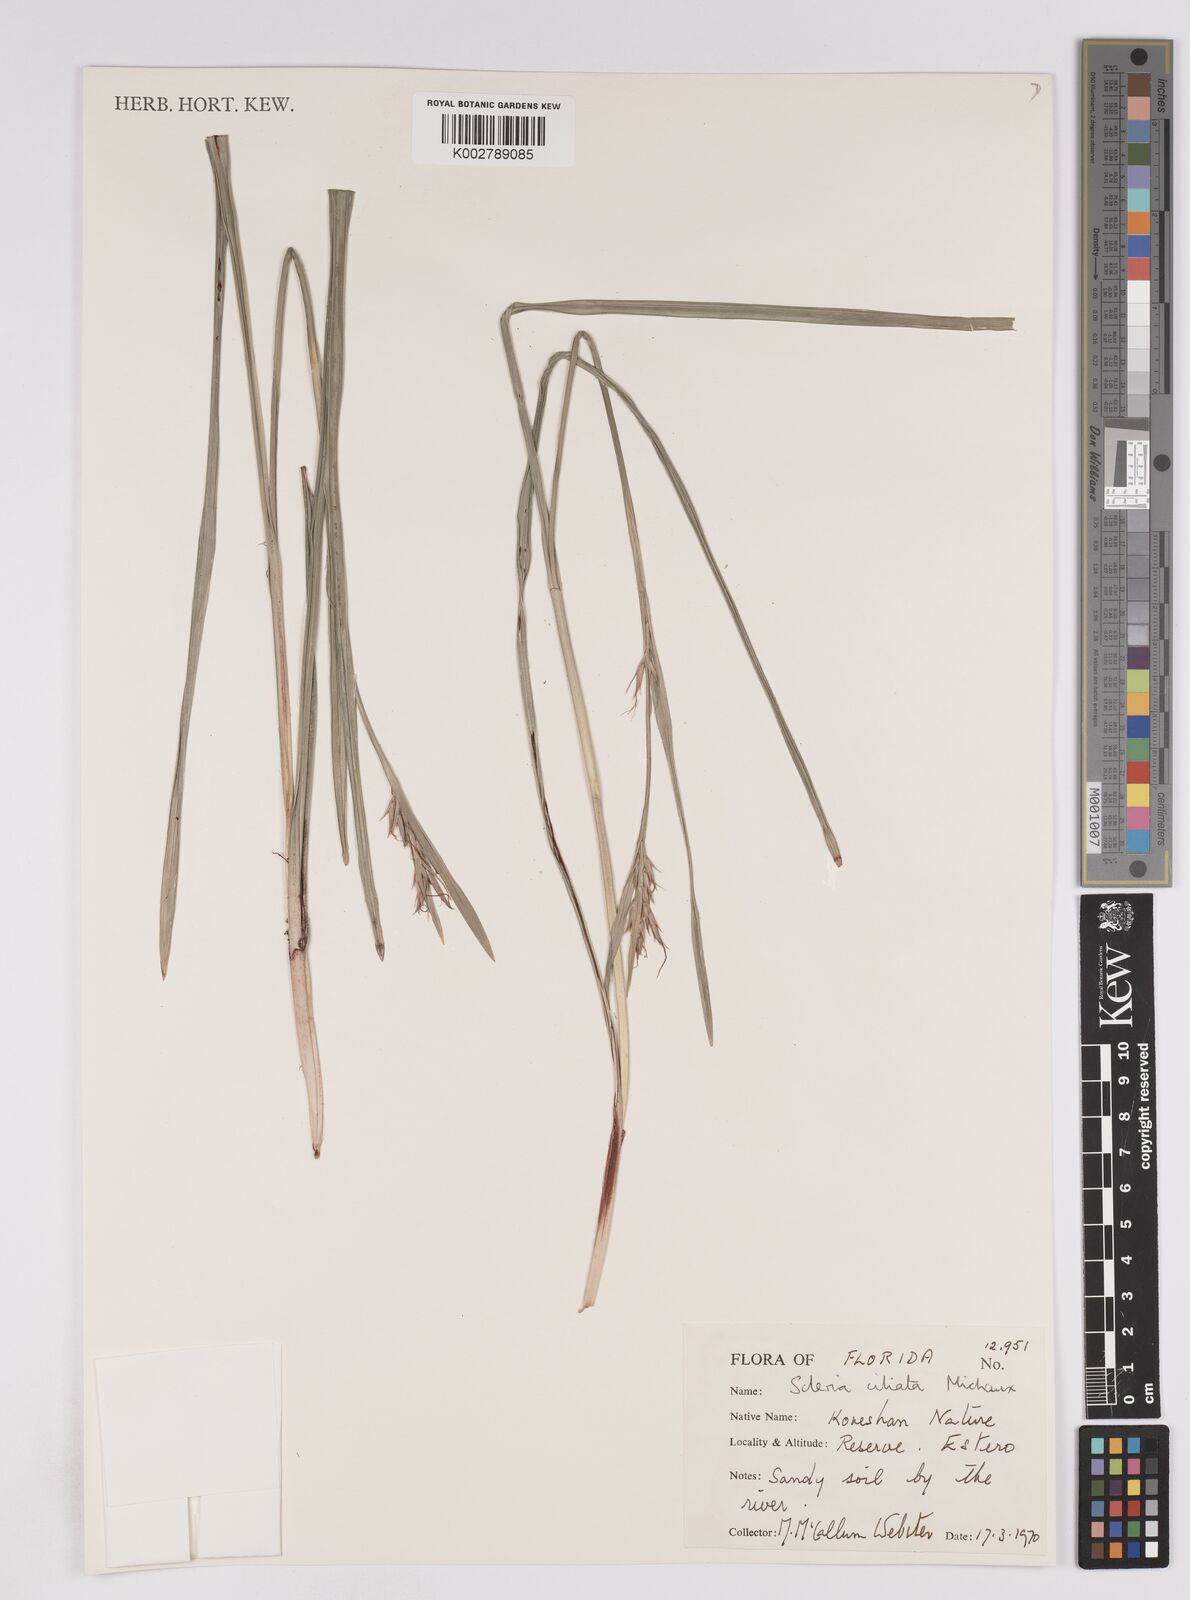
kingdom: Plantae
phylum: Tracheophyta
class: Liliopsida
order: Poales
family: Cyperaceae
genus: Scleria
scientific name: Scleria ciliata
